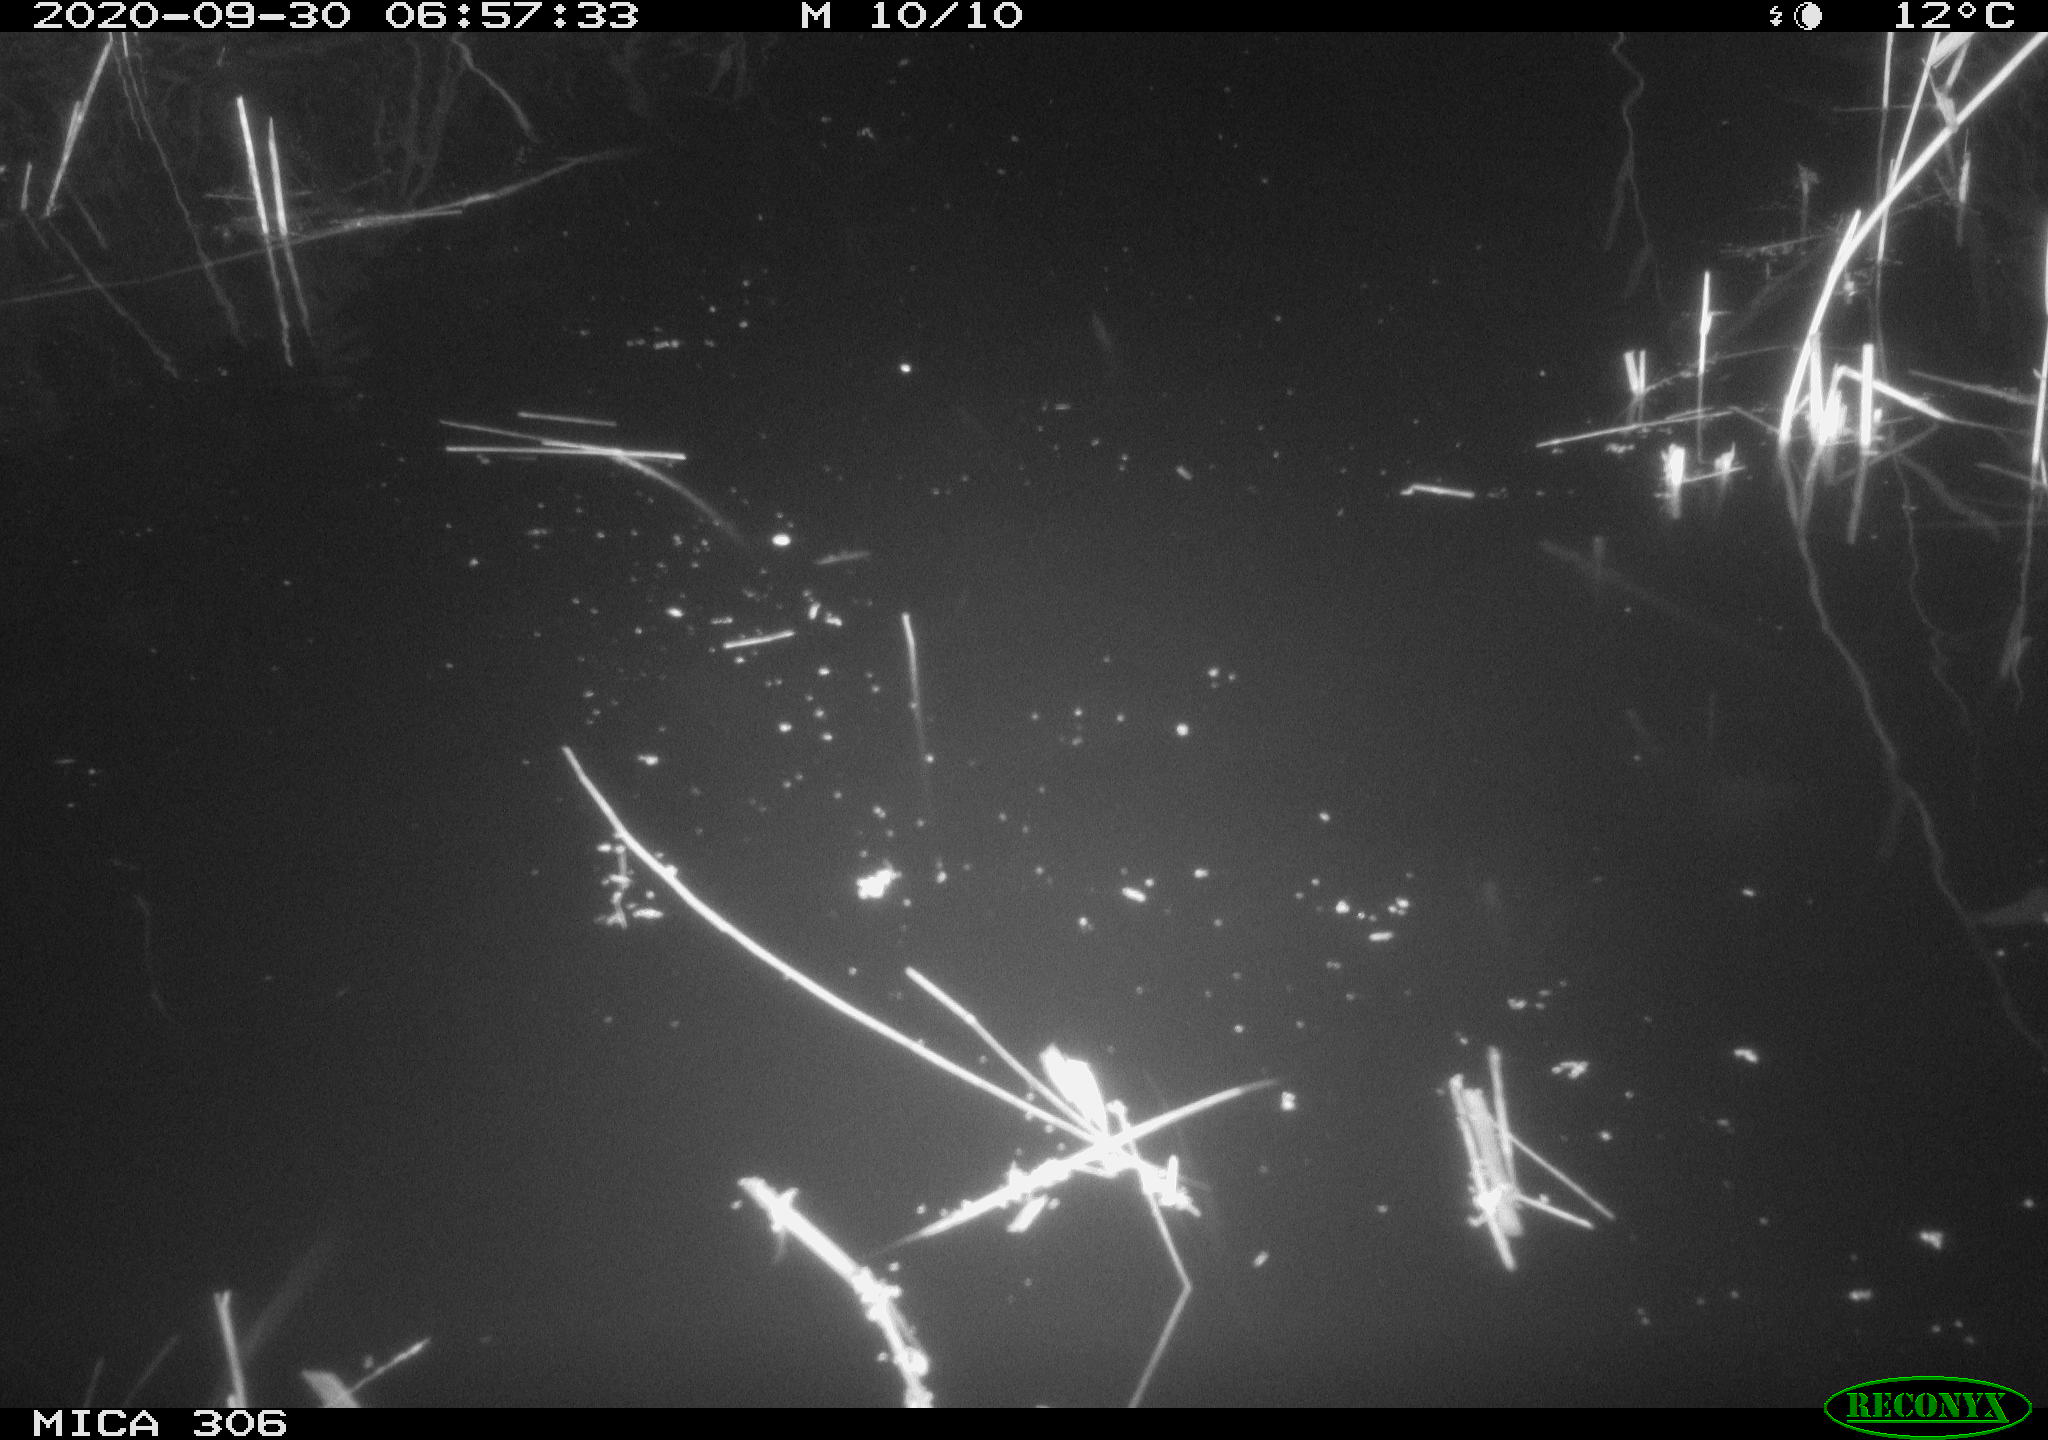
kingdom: Animalia
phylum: Chordata
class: Mammalia
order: Rodentia
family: Muridae
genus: Rattus
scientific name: Rattus norvegicus
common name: Brown rat
